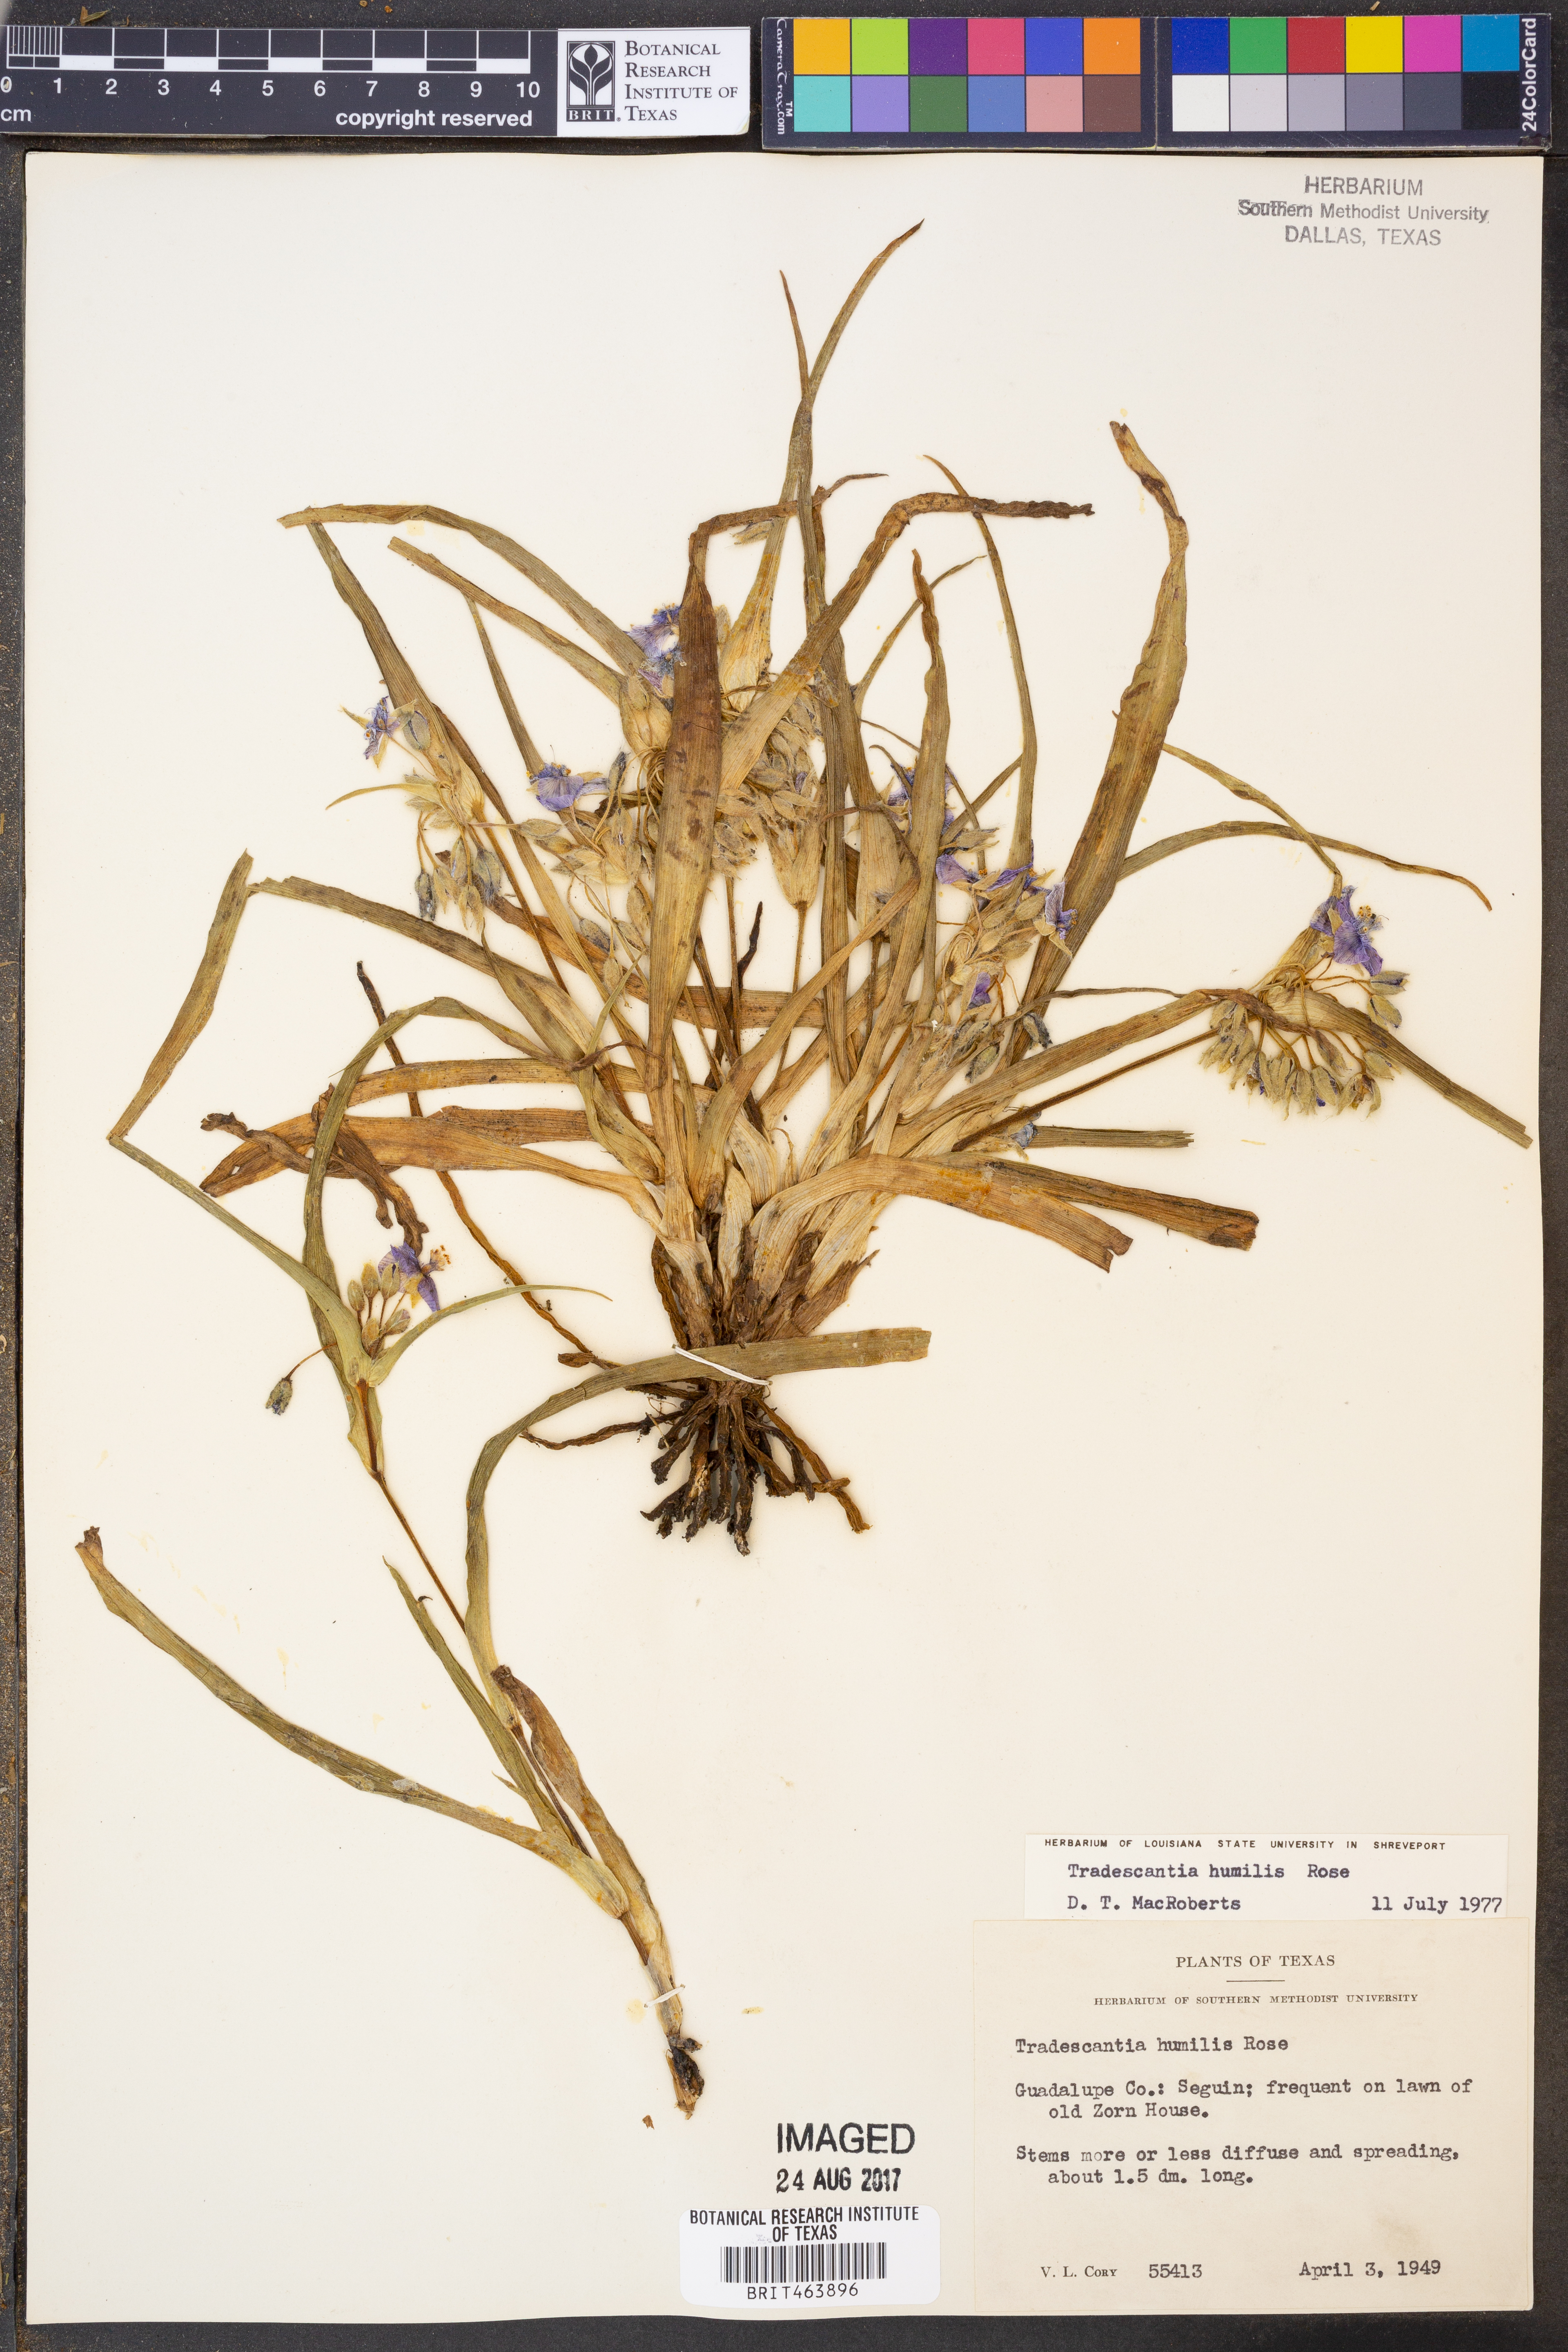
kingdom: Plantae
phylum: Tracheophyta
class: Liliopsida
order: Commelinales
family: Commelinaceae
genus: Tradescantia
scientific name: Tradescantia humilis
